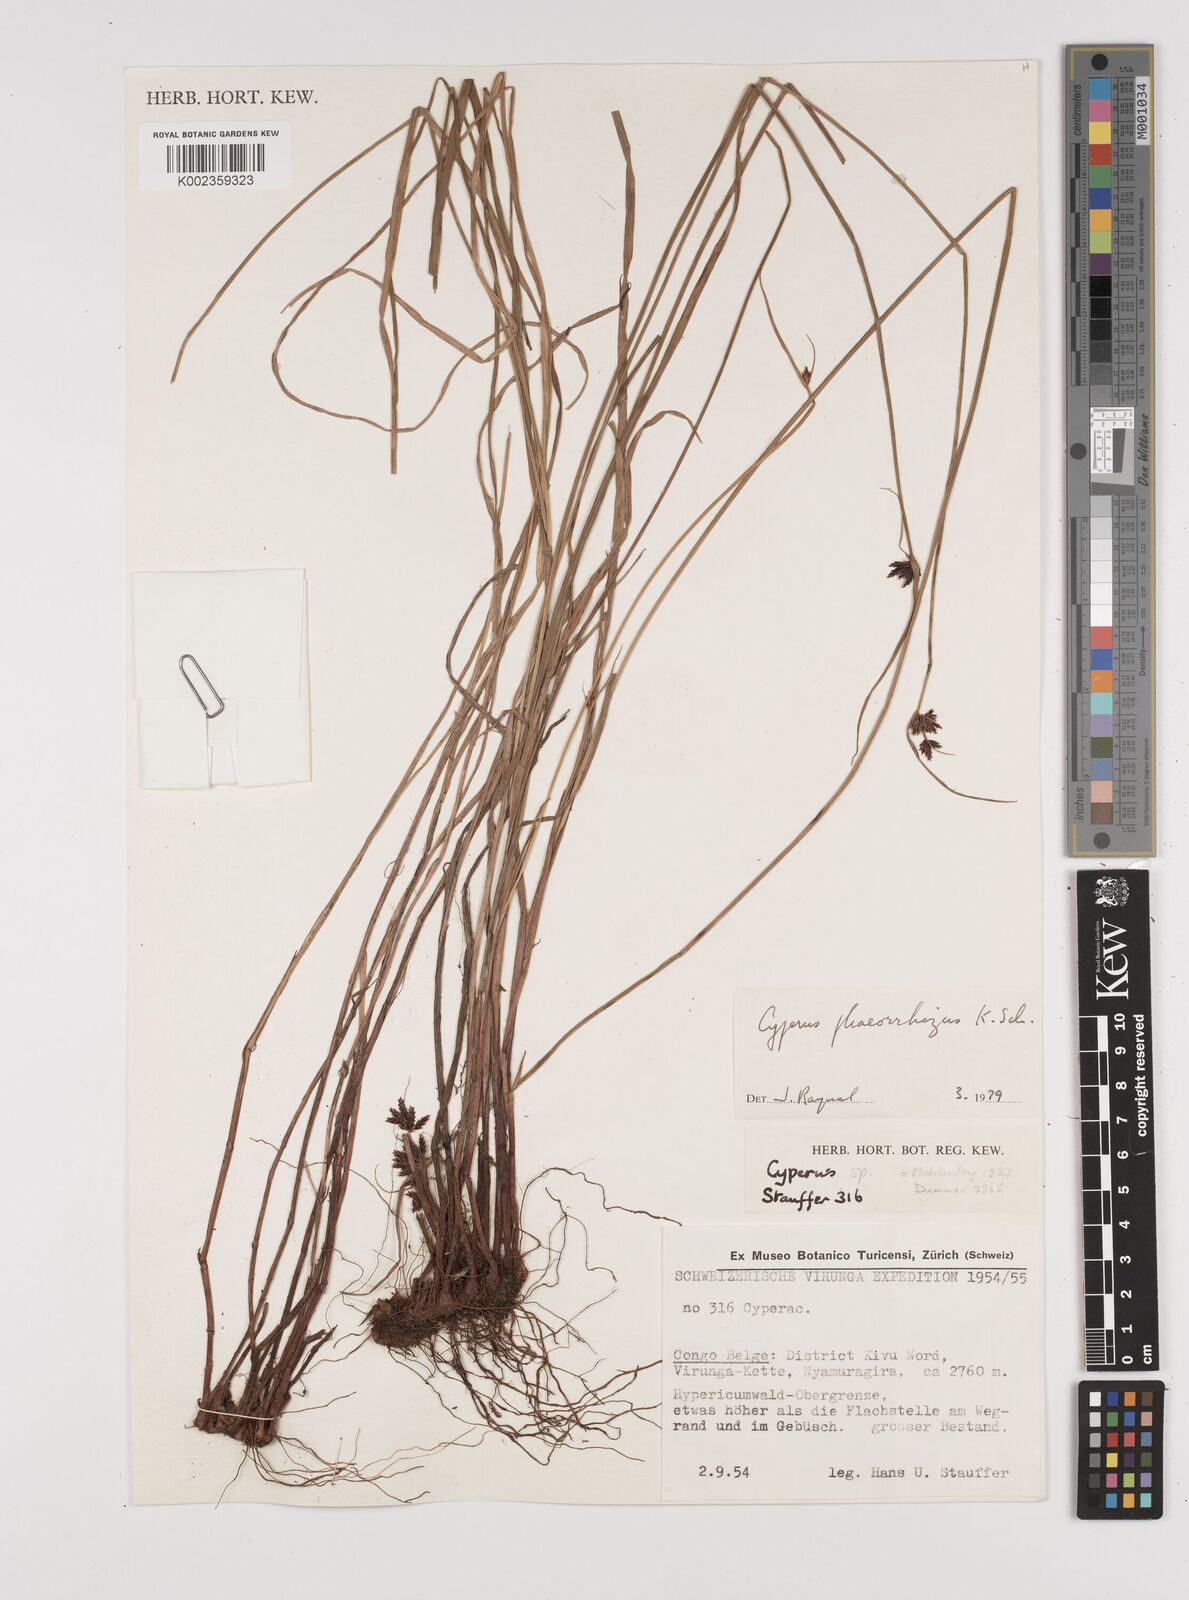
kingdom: Plantae
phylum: Tracheophyta
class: Liliopsida
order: Poales
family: Cyperaceae
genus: Cyperus
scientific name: Cyperus haspan
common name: Haspan flatsedge
